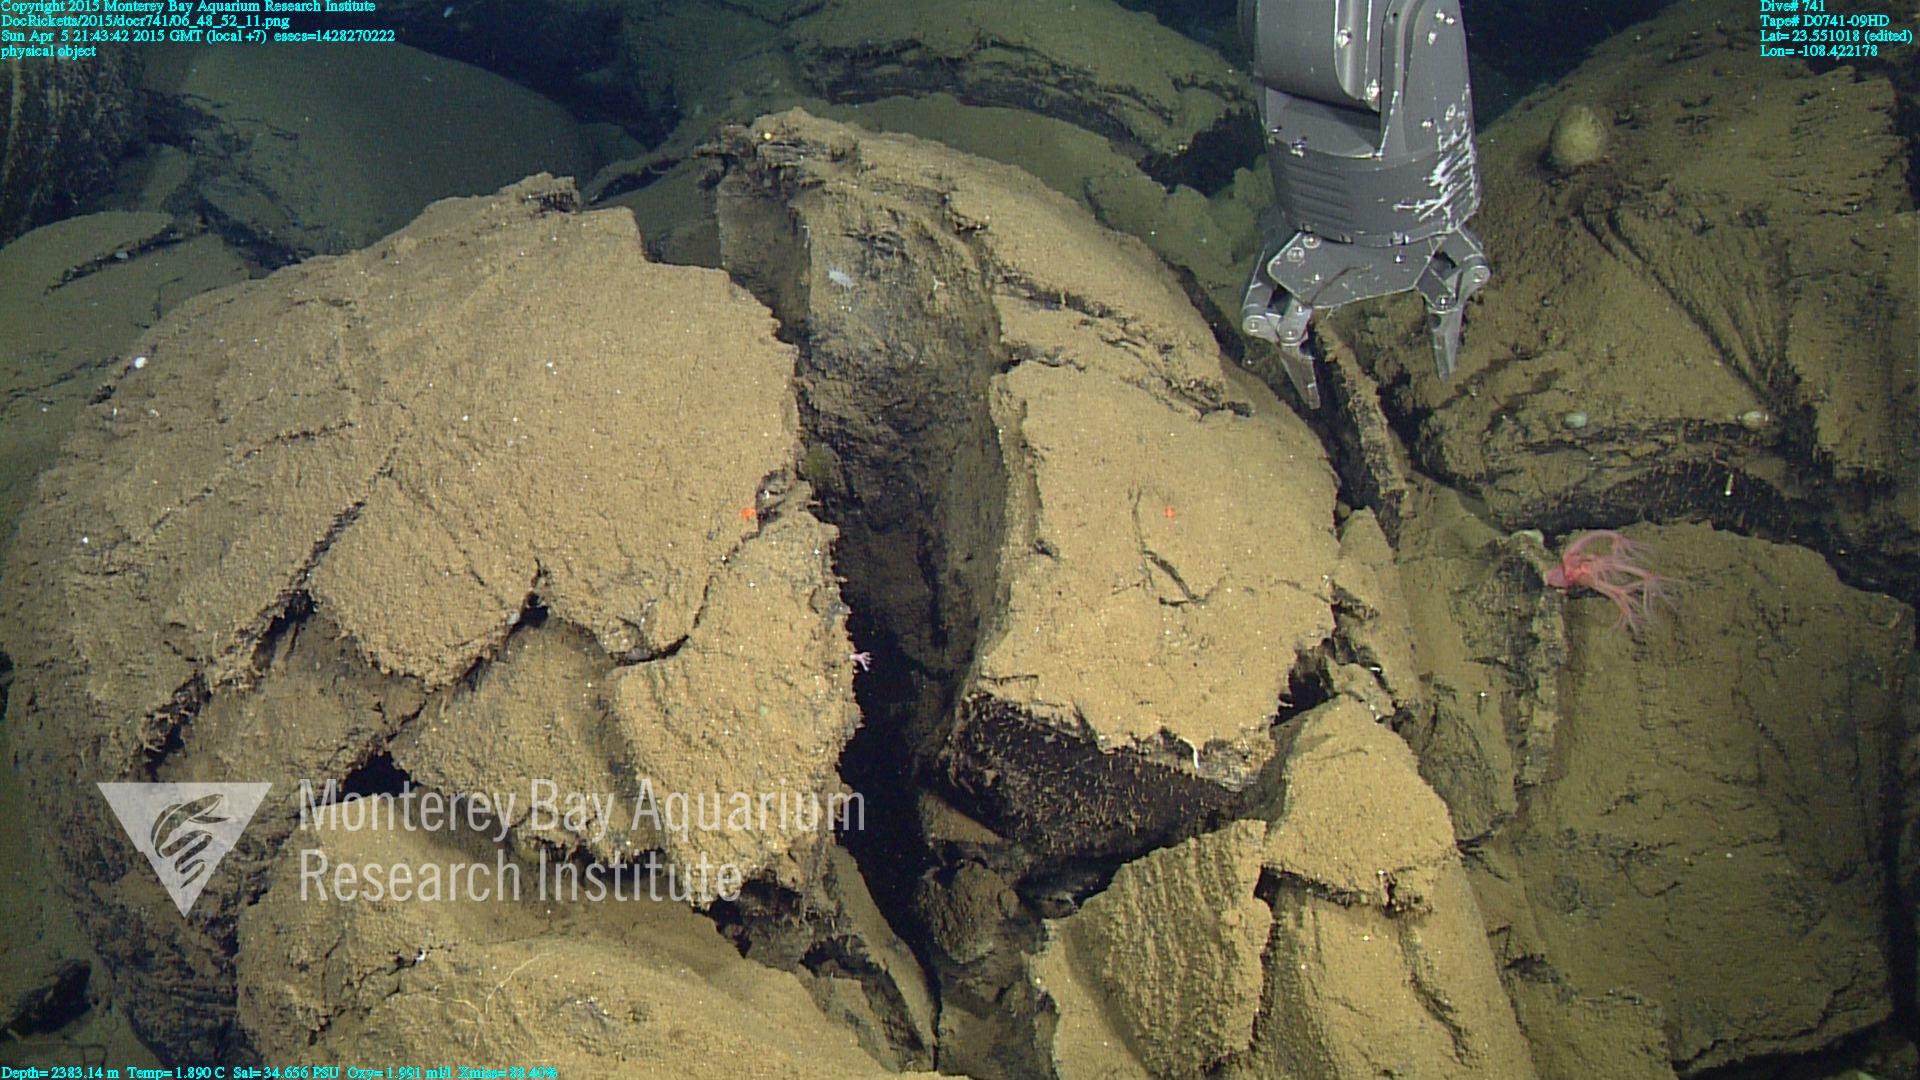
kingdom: Animalia
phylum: Cnidaria
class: Anthozoa
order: Scleralcyonacea
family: Coralliidae
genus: Heteropolypus
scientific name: Heteropolypus ritteri
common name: Ritter's soft coral
